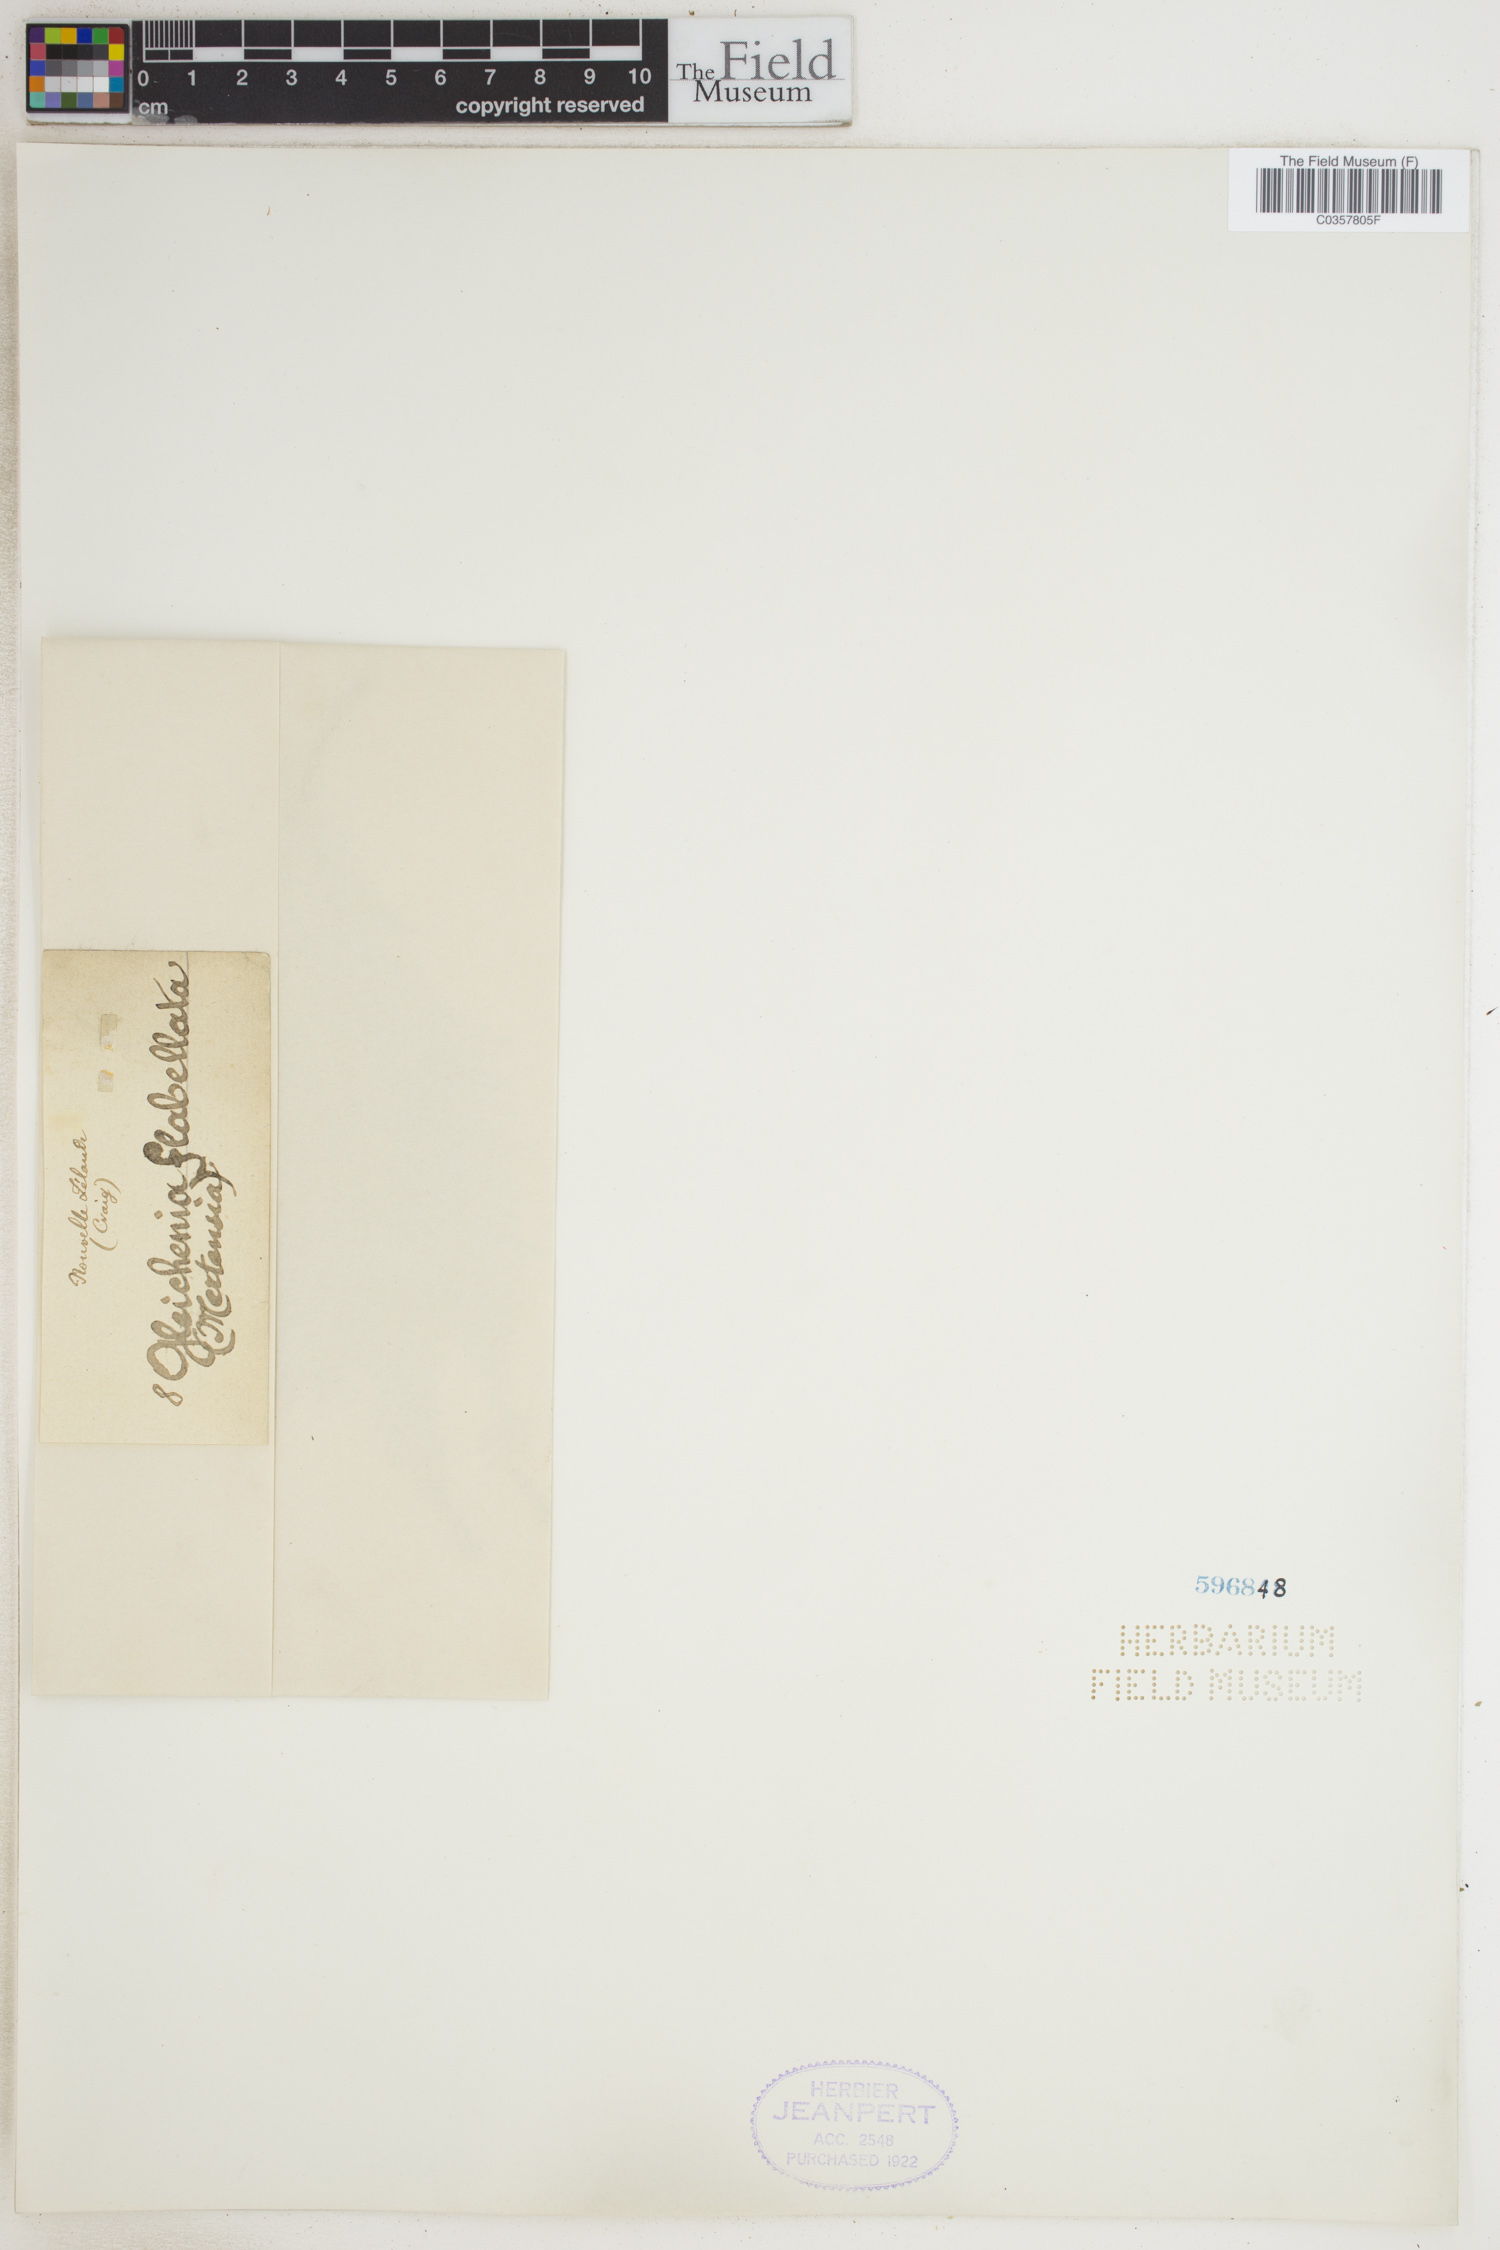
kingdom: Plantae
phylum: Tracheophyta
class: Polypodiopsida
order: Gleicheniales
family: Gleicheniaceae
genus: Sticherus
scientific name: Sticherus flabellatus
